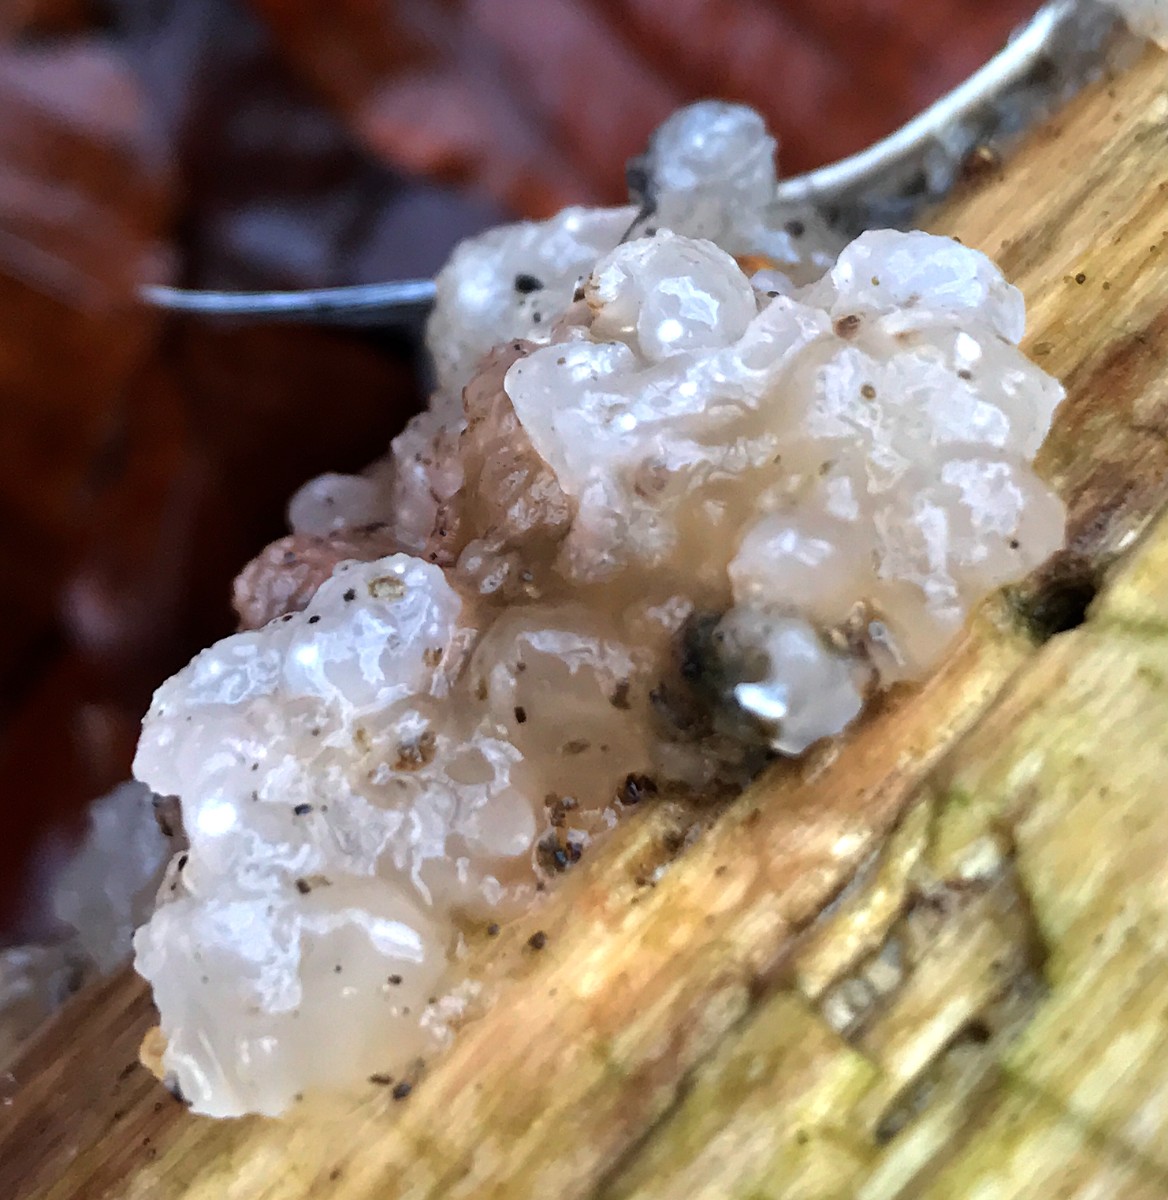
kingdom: Fungi
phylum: Basidiomycota
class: Agaricomycetes
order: Auriculariales
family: Hyaloriaceae
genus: Myxarium
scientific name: Myxarium nucleatum
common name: klar bævretop
